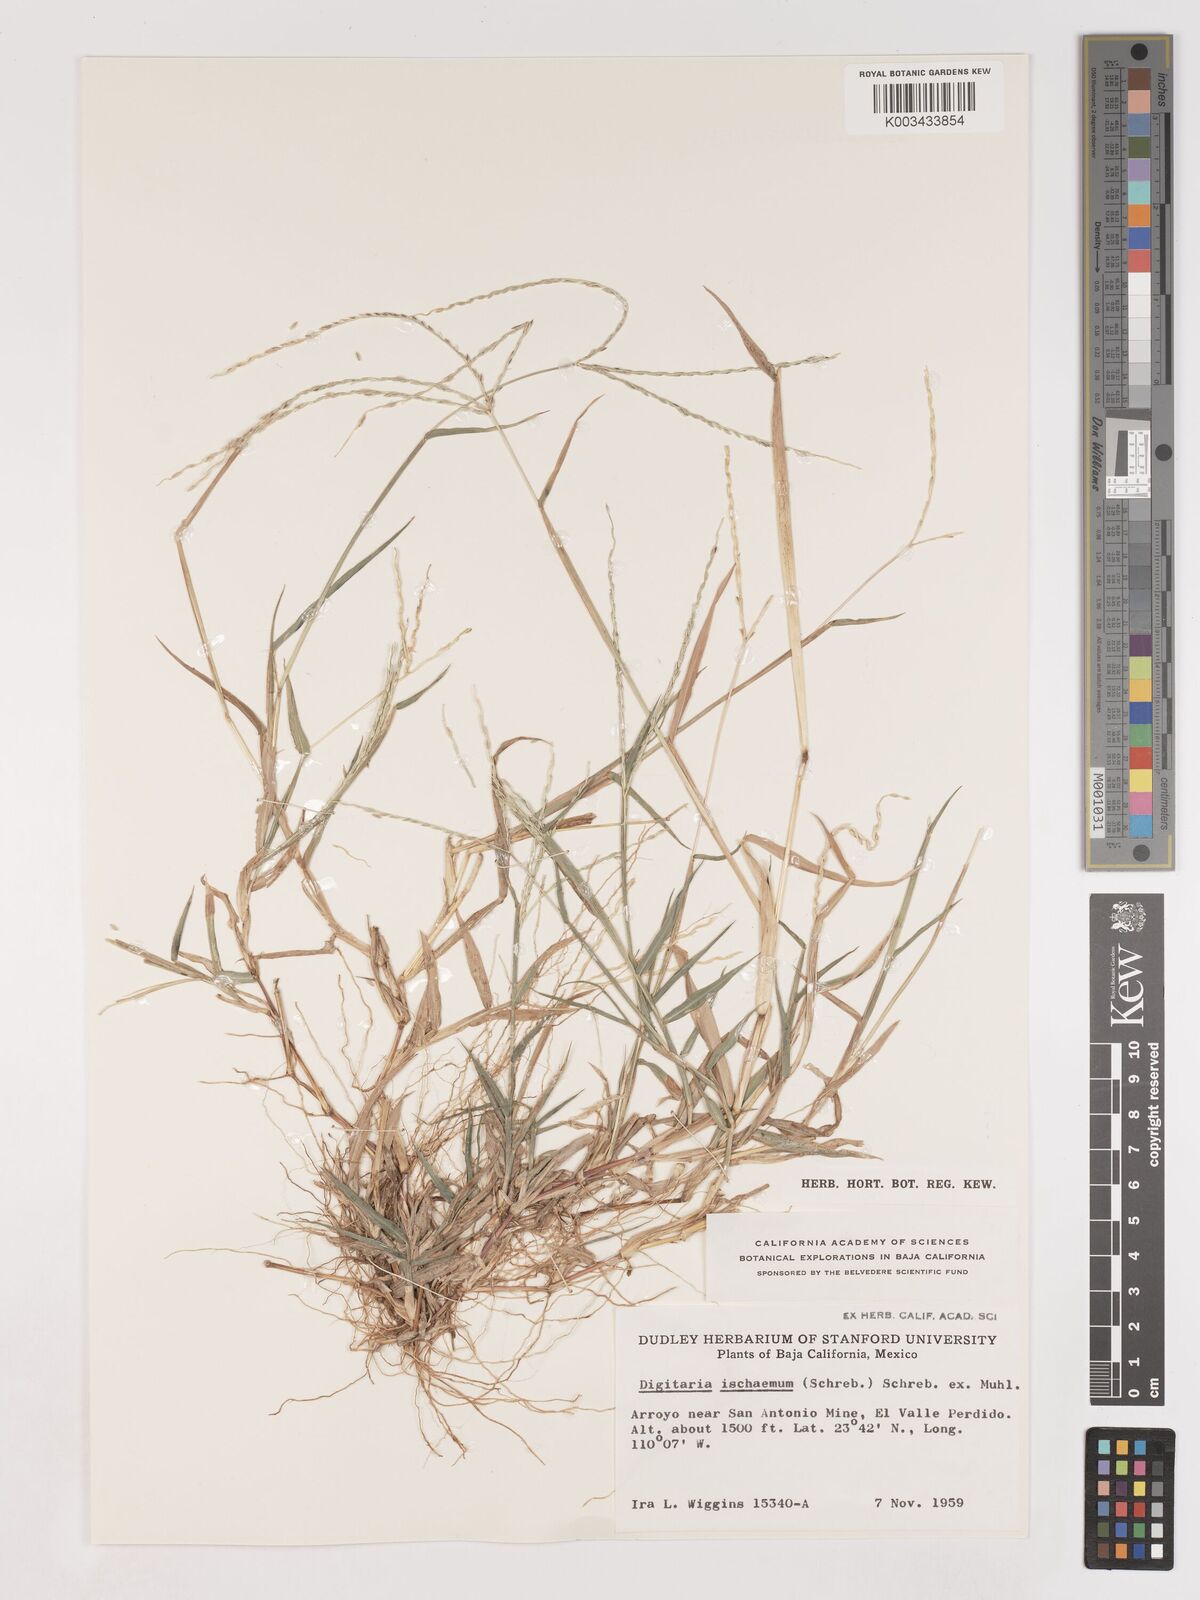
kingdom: Plantae
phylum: Tracheophyta
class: Liliopsida
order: Poales
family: Poaceae
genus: Digitaria
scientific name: Digitaria ciliaris
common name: Tropical finger-grass
